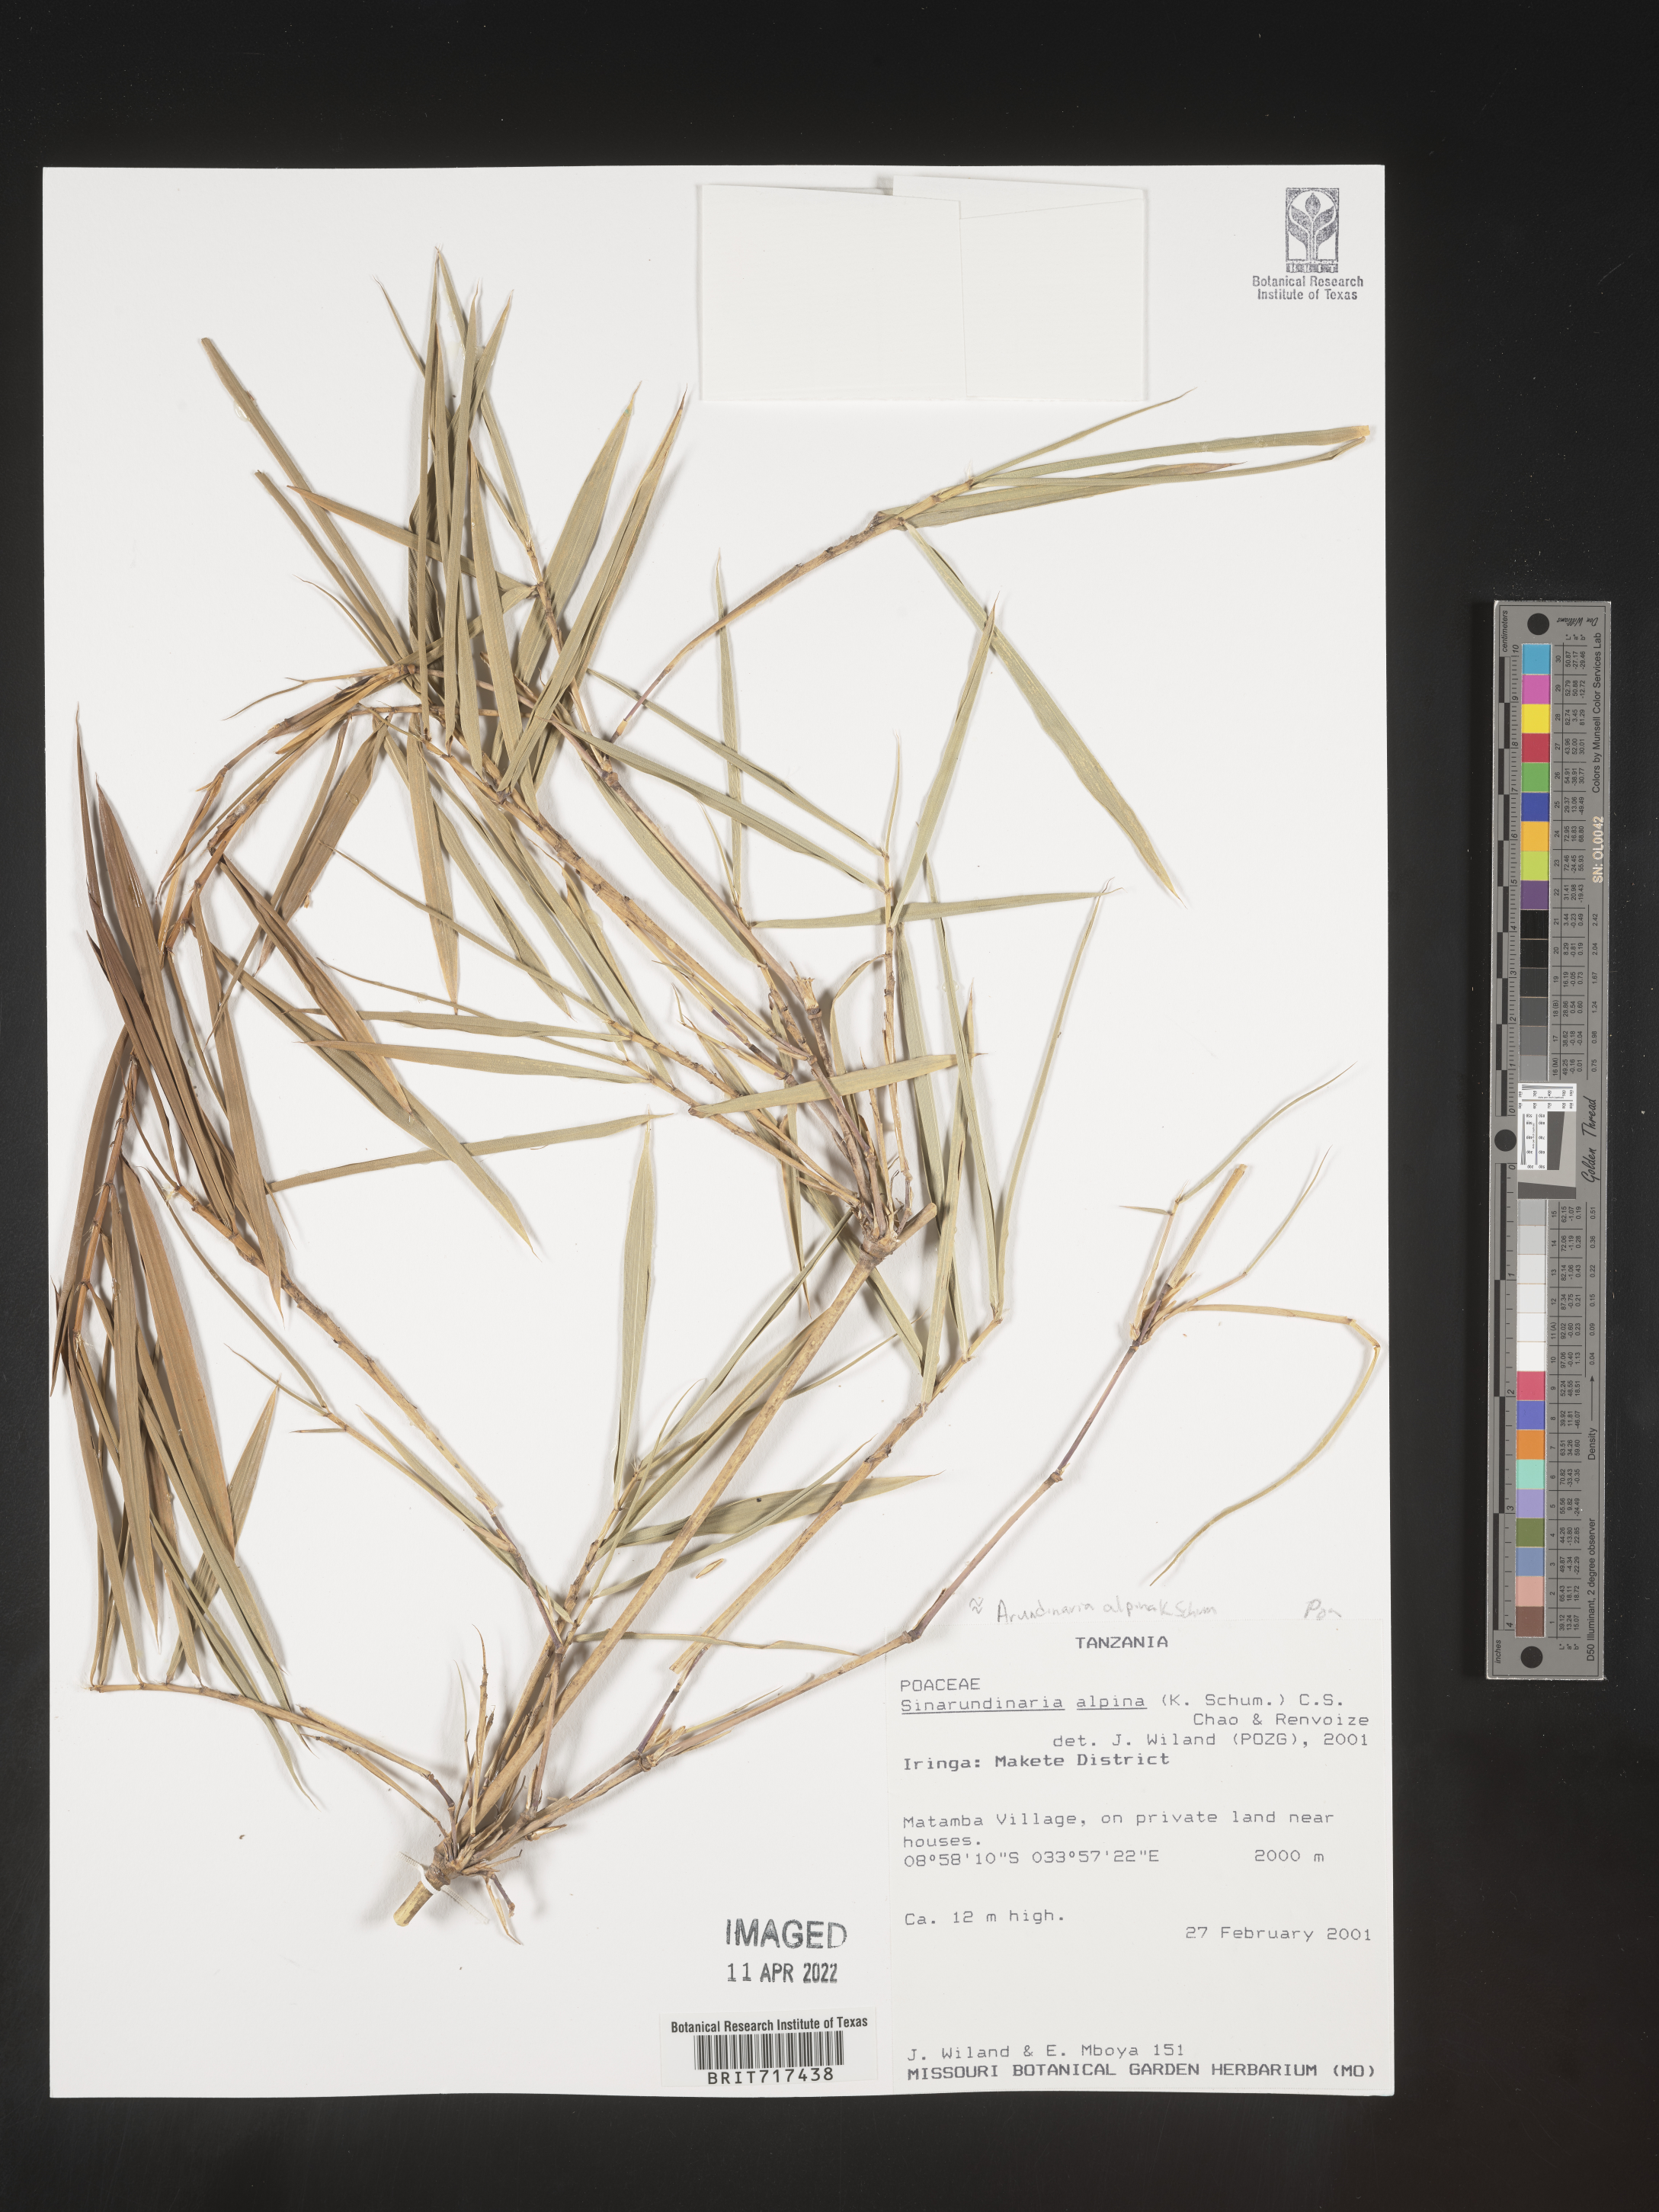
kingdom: Plantae
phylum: Tracheophyta
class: Liliopsida
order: Poales
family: Poaceae
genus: Fargesia
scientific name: Fargesia
